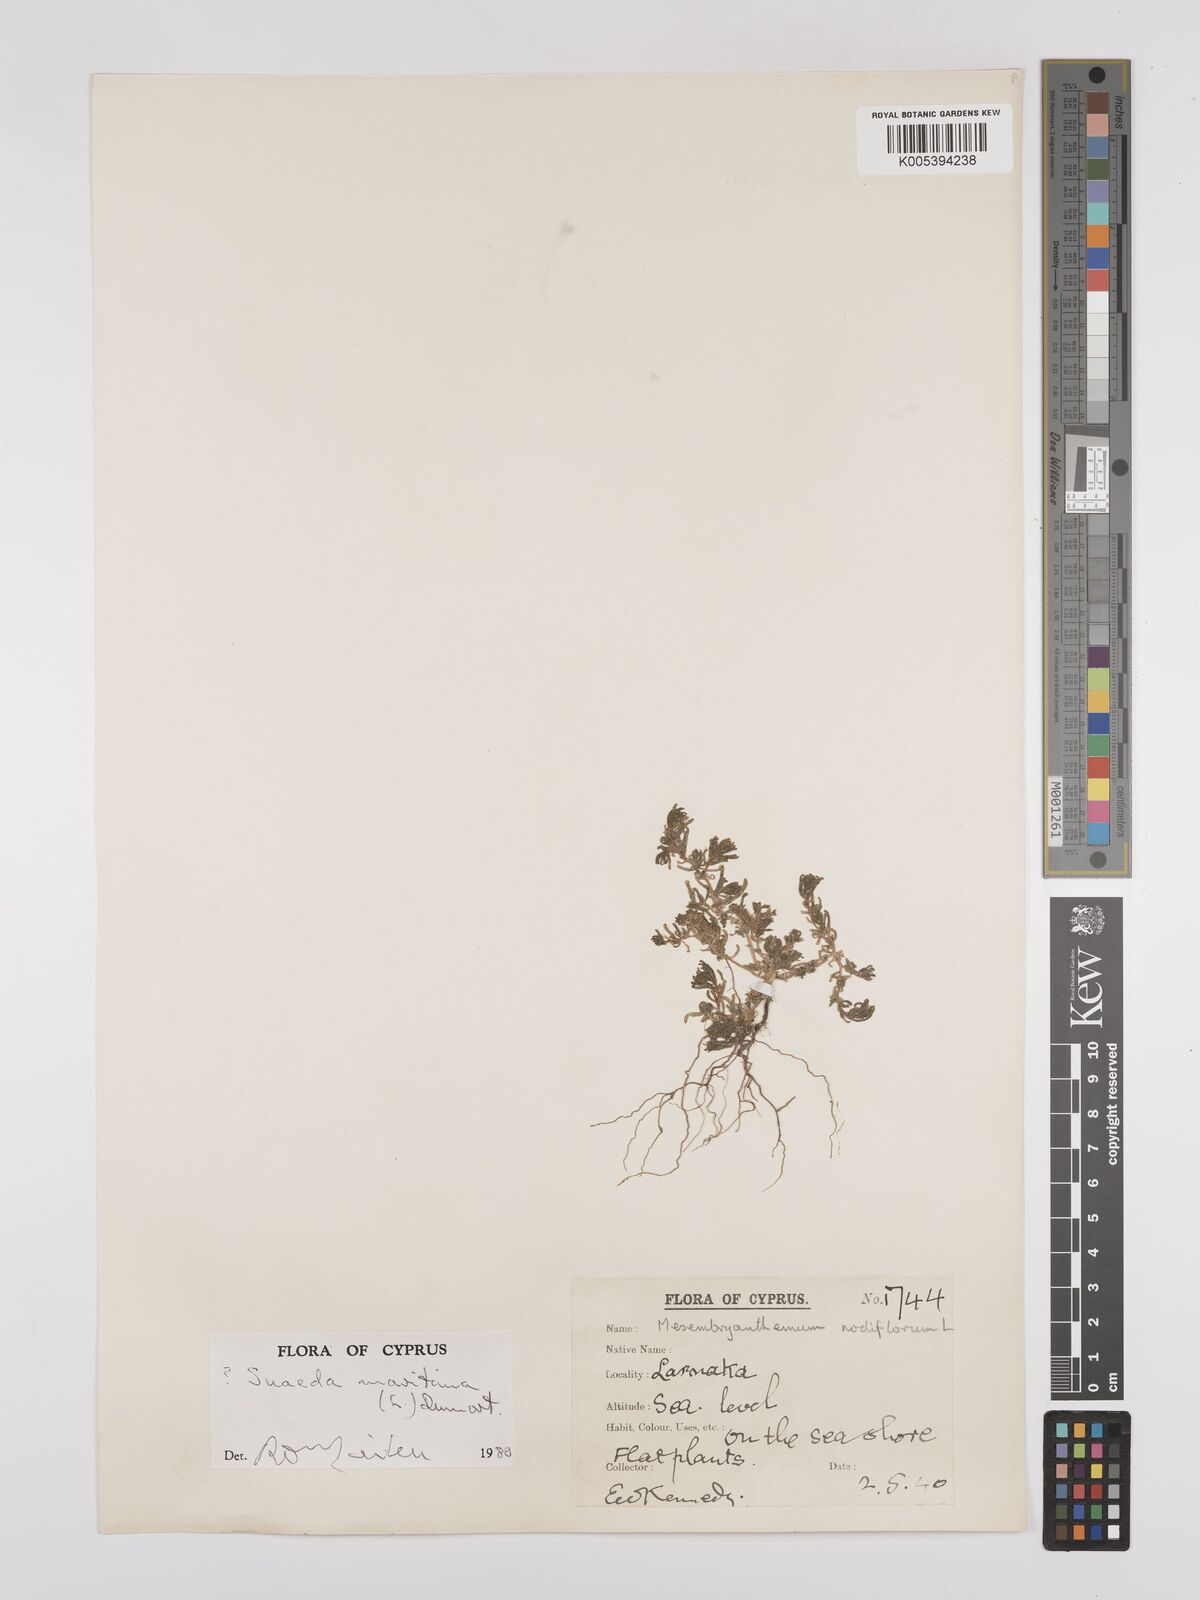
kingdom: Plantae
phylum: Tracheophyta
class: Magnoliopsida
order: Caryophyllales
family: Amaranthaceae
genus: Suaeda
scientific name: Suaeda
